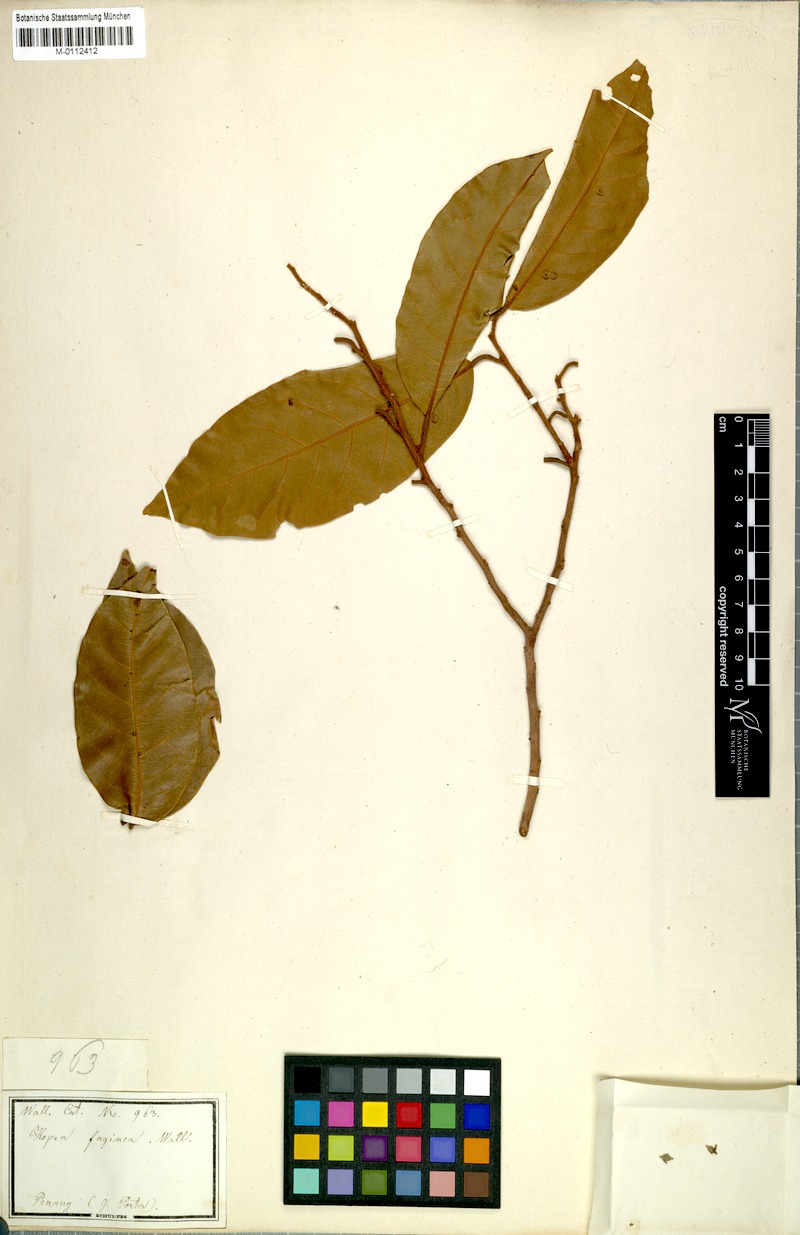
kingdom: Plantae
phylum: Tracheophyta
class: Magnoliopsida
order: Malvales
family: Dipterocarpaceae
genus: Vatica
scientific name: Vatica odorata
